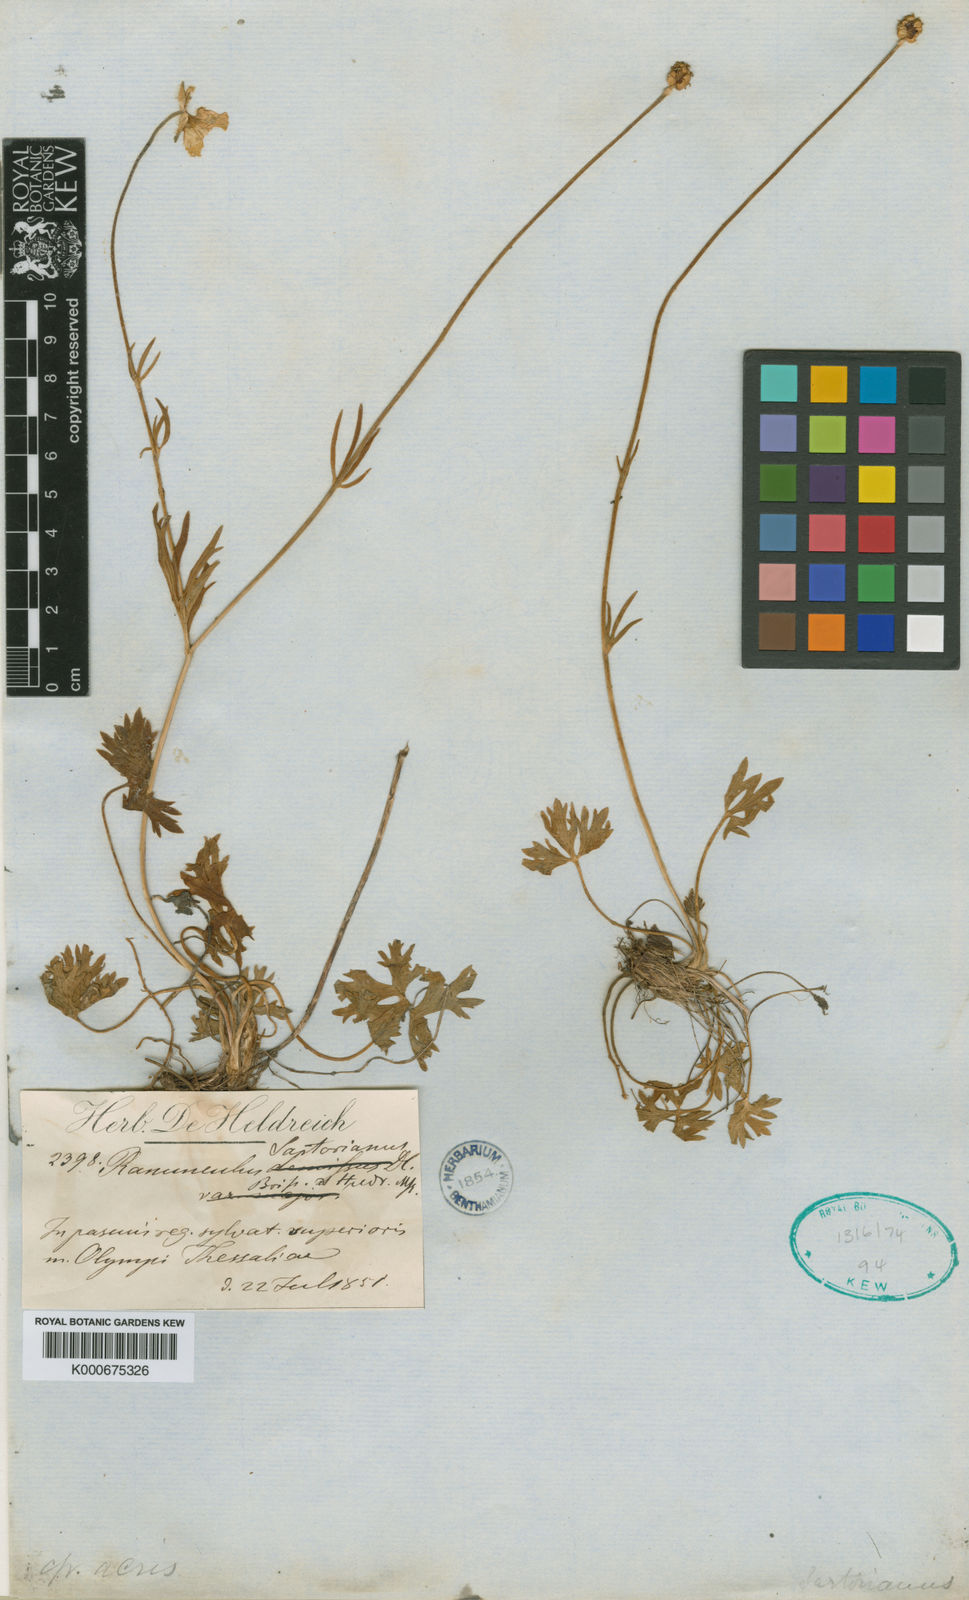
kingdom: Plantae
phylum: Tracheophyta
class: Magnoliopsida
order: Ranunculales
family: Ranunculaceae
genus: Ranunculus
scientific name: Ranunculus sartorianus
